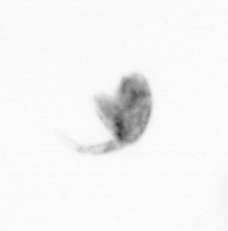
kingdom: Animalia
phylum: Arthropoda
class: Copepoda
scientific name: Copepoda
